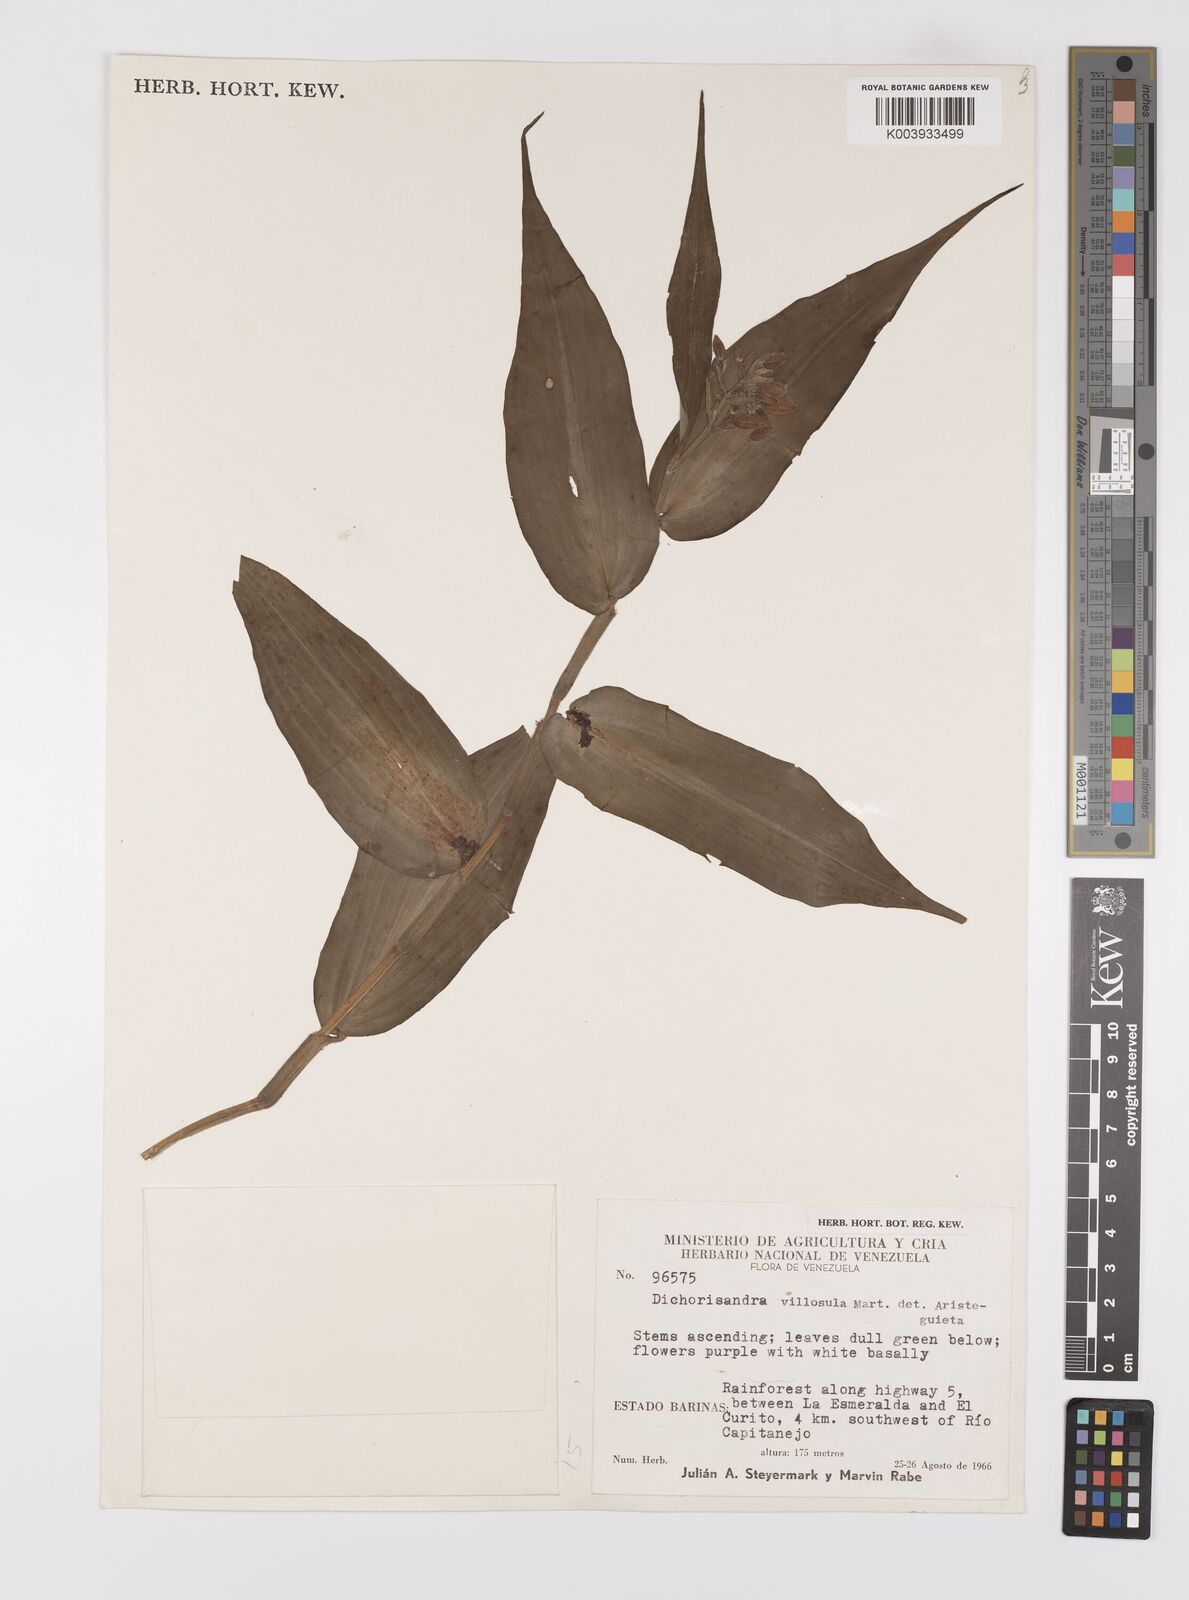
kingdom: Plantae
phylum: Tracheophyta
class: Liliopsida
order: Commelinales
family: Commelinaceae
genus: Dichorisandra
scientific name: Dichorisandra villosula
